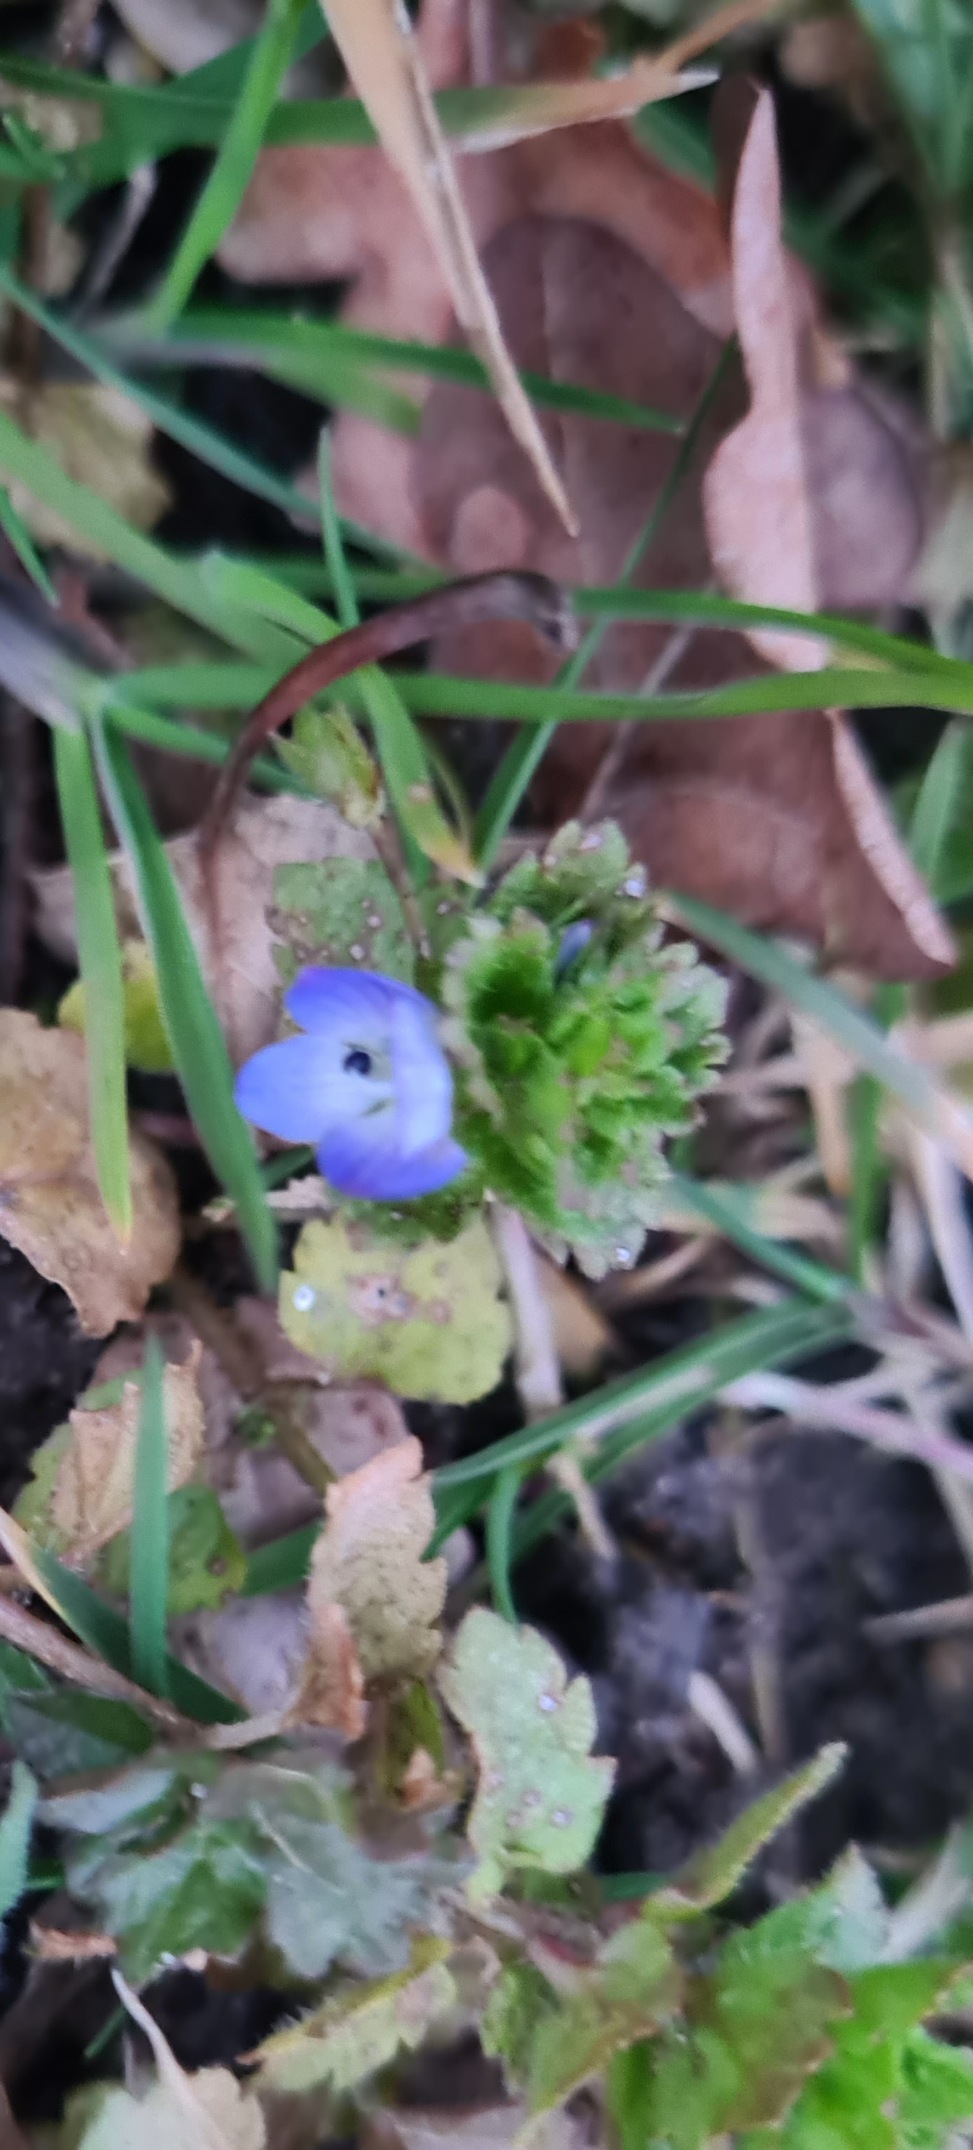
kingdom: Plantae
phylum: Tracheophyta
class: Magnoliopsida
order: Lamiales
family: Plantaginaceae
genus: Veronica
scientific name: Veronica persica
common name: Storkronet ærenpris
